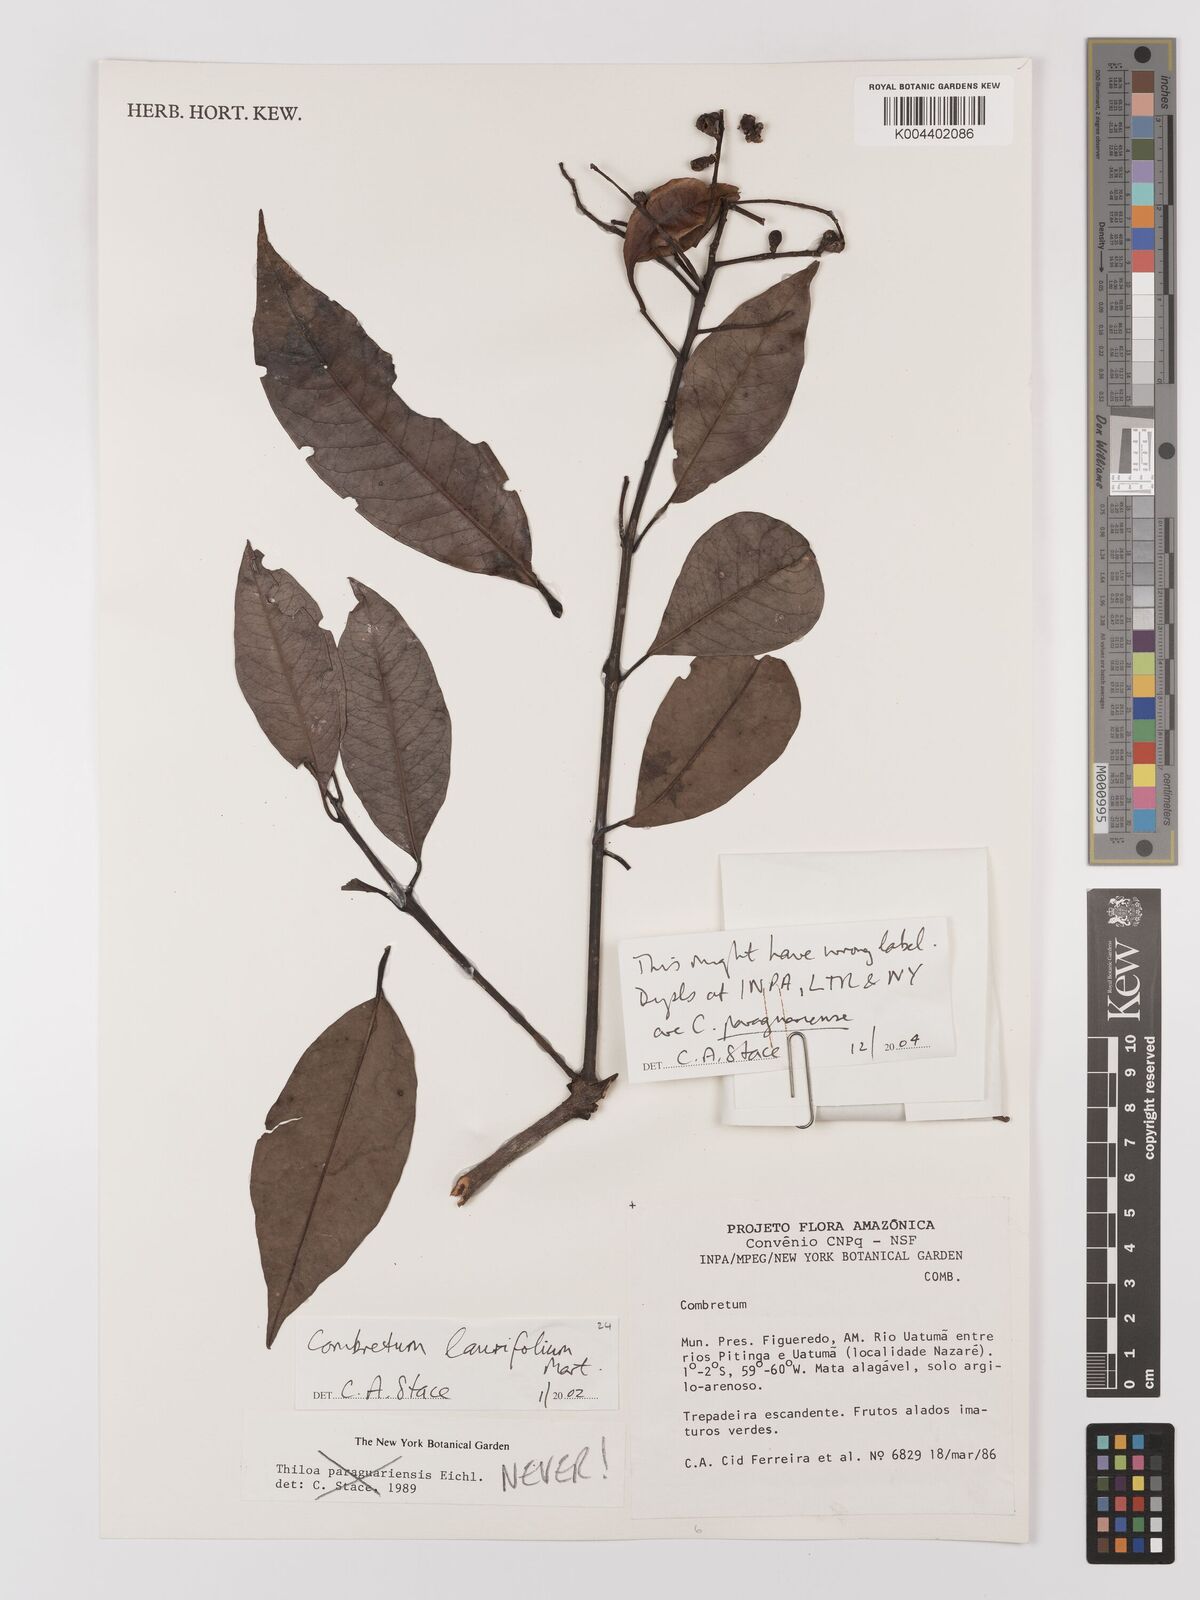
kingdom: Plantae
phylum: Tracheophyta
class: Magnoliopsida
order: Myrtales
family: Combretaceae
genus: Combretum
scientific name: Combretum
